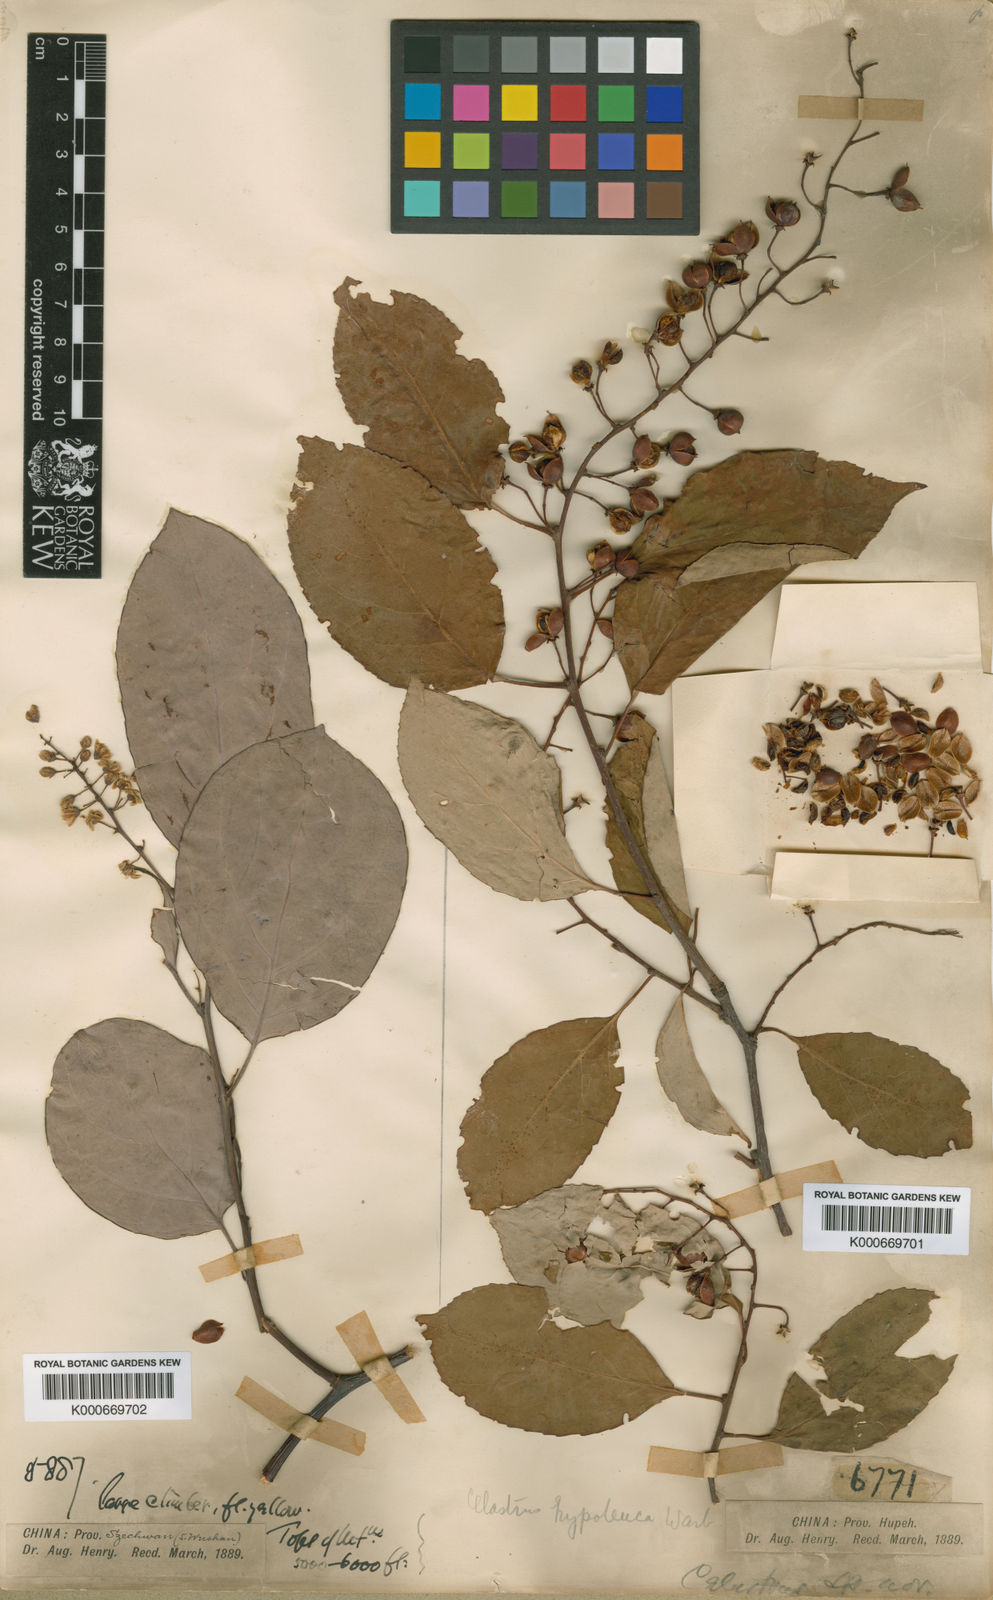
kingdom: Plantae
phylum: Tracheophyta
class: Magnoliopsida
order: Celastrales
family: Celastraceae
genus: Celastrus
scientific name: Celastrus hypoleucus
